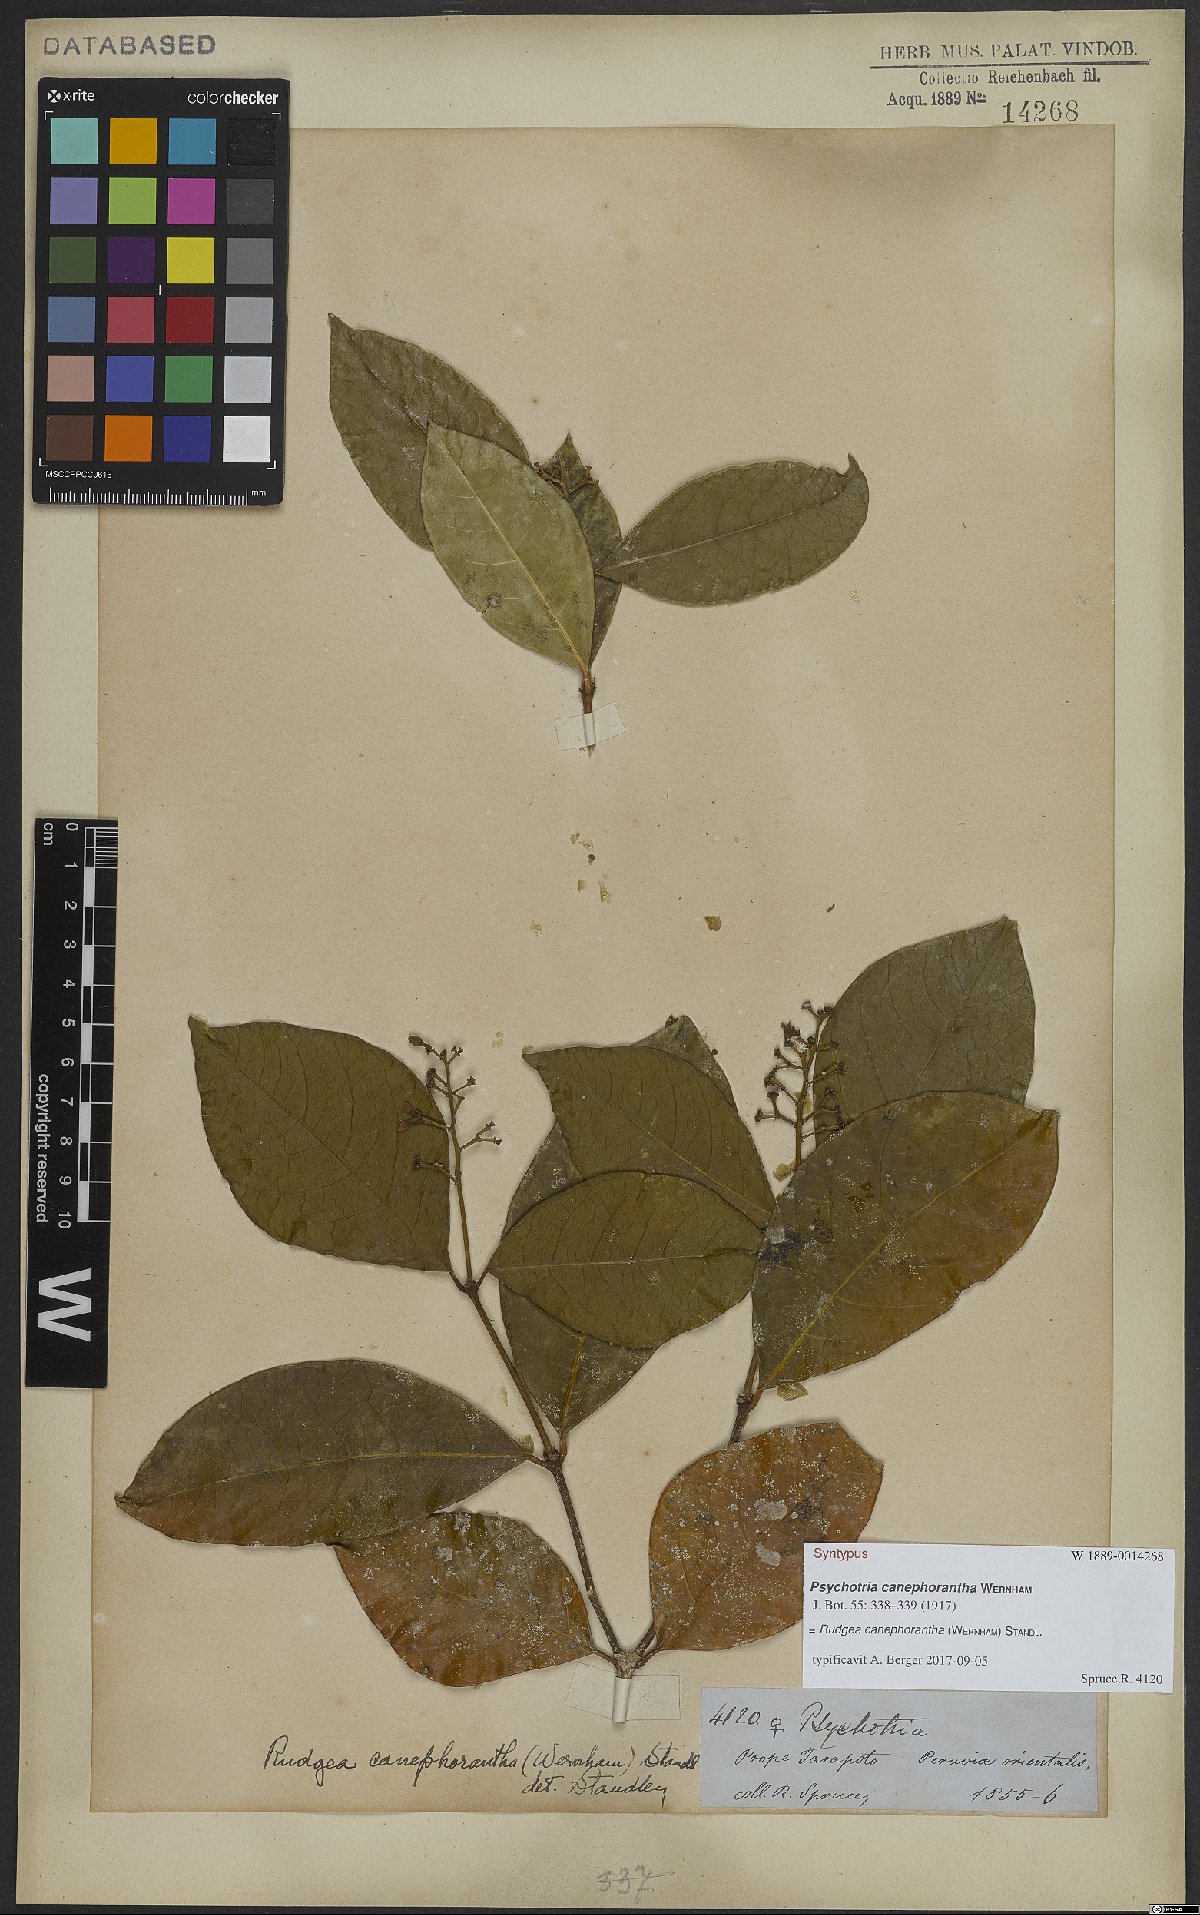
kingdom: Plantae
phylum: Tracheophyta
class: Magnoliopsida
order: Gentianales
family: Rubiaceae
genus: Rudgea
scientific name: Rudgea canephorantha
